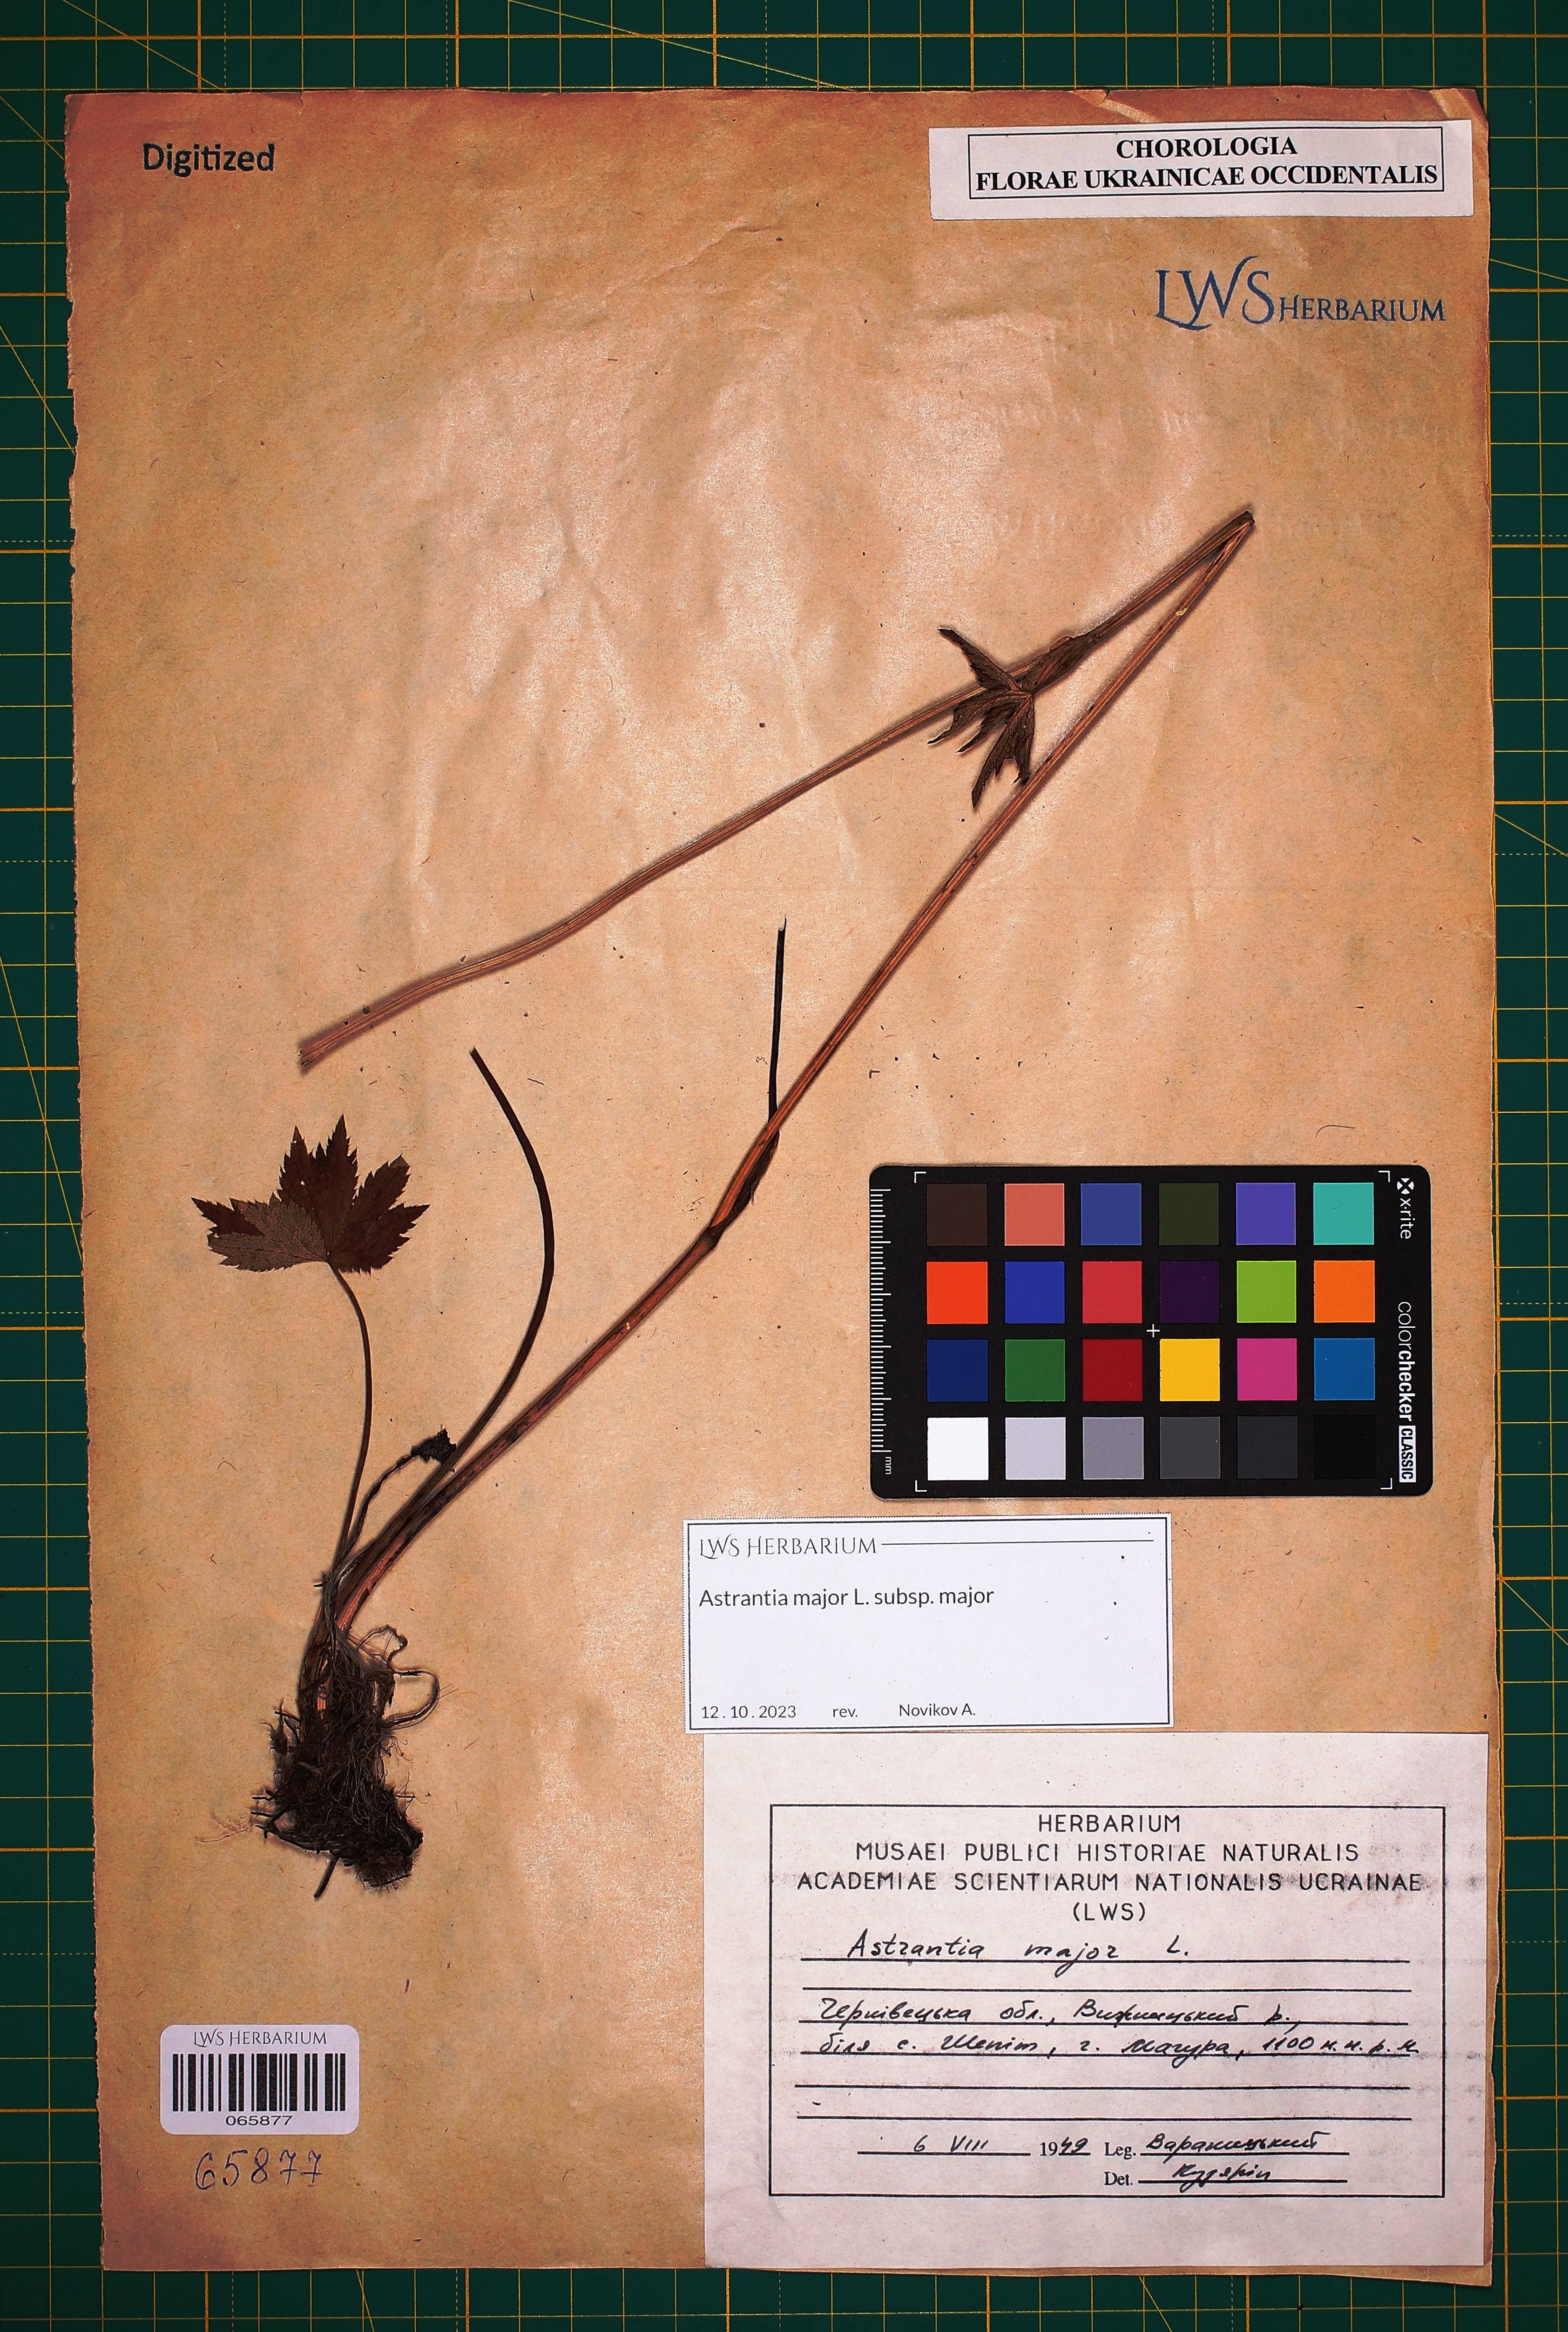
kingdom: Plantae
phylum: Tracheophyta
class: Magnoliopsida
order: Apiales
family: Apiaceae
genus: Astrantia
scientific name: Astrantia major
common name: Greater masterwort
